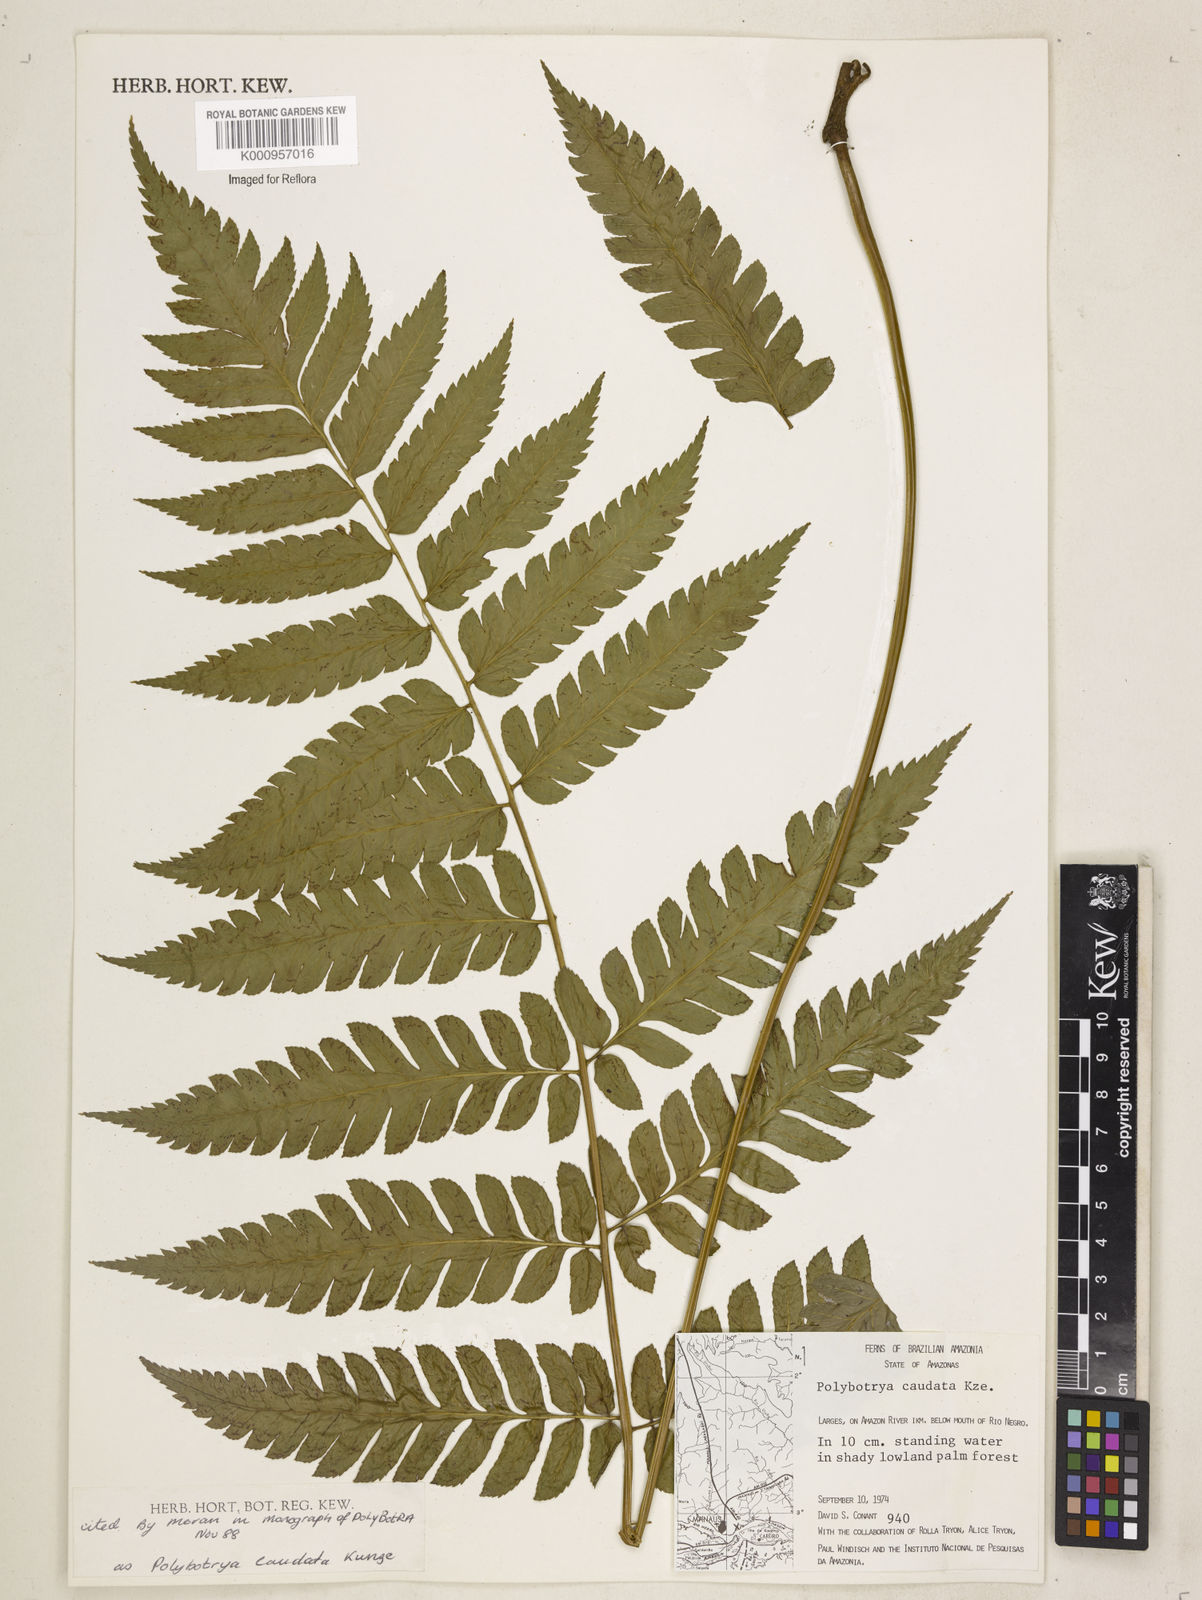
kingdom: Plantae
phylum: Tracheophyta
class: Polypodiopsida
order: Polypodiales
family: Dryopteridaceae
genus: Polybotrya
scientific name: Polybotrya caudata
